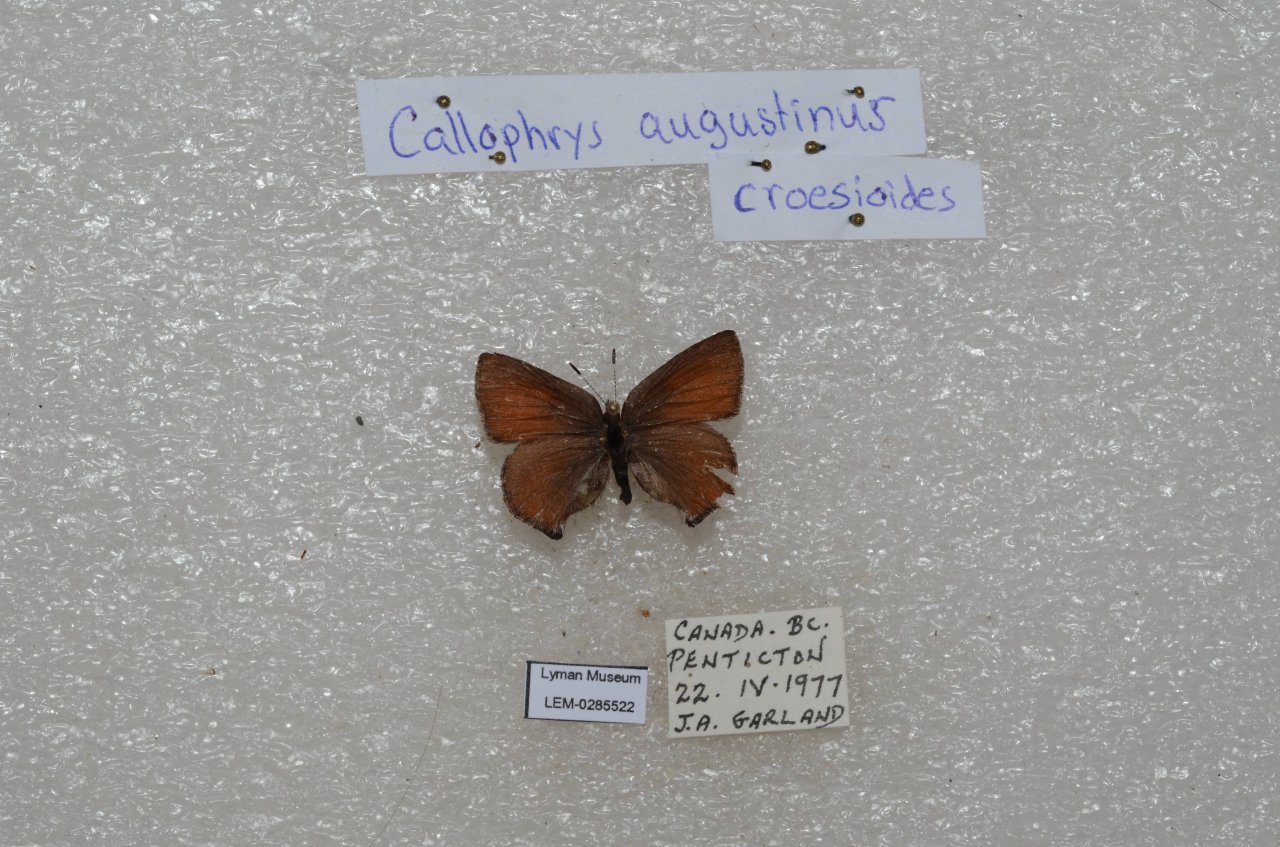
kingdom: Animalia
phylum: Arthropoda
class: Insecta
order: Lepidoptera
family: Lycaenidae
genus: Incisalia
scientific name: Incisalia irioides
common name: Brown Elfin
